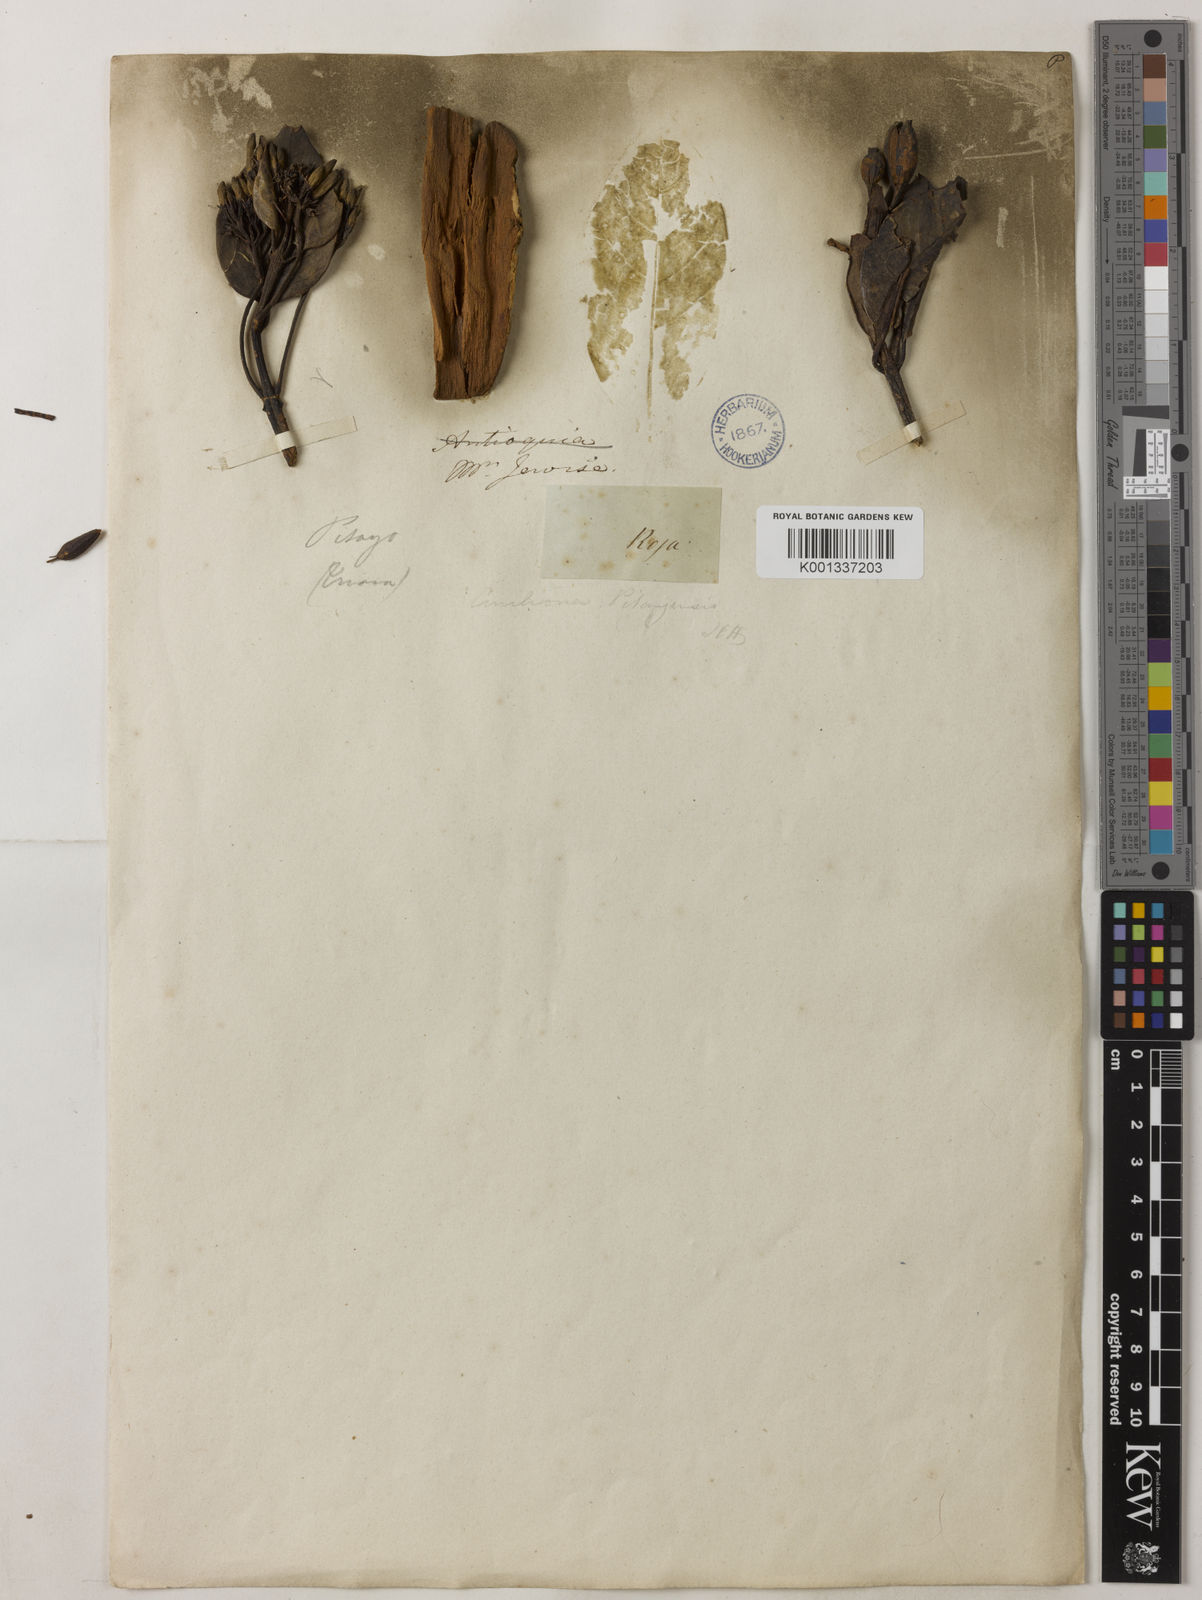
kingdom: Plantae
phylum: Tracheophyta
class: Magnoliopsida
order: Gentianales
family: Rubiaceae
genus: Cinchona
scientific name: Cinchona pitayensis
